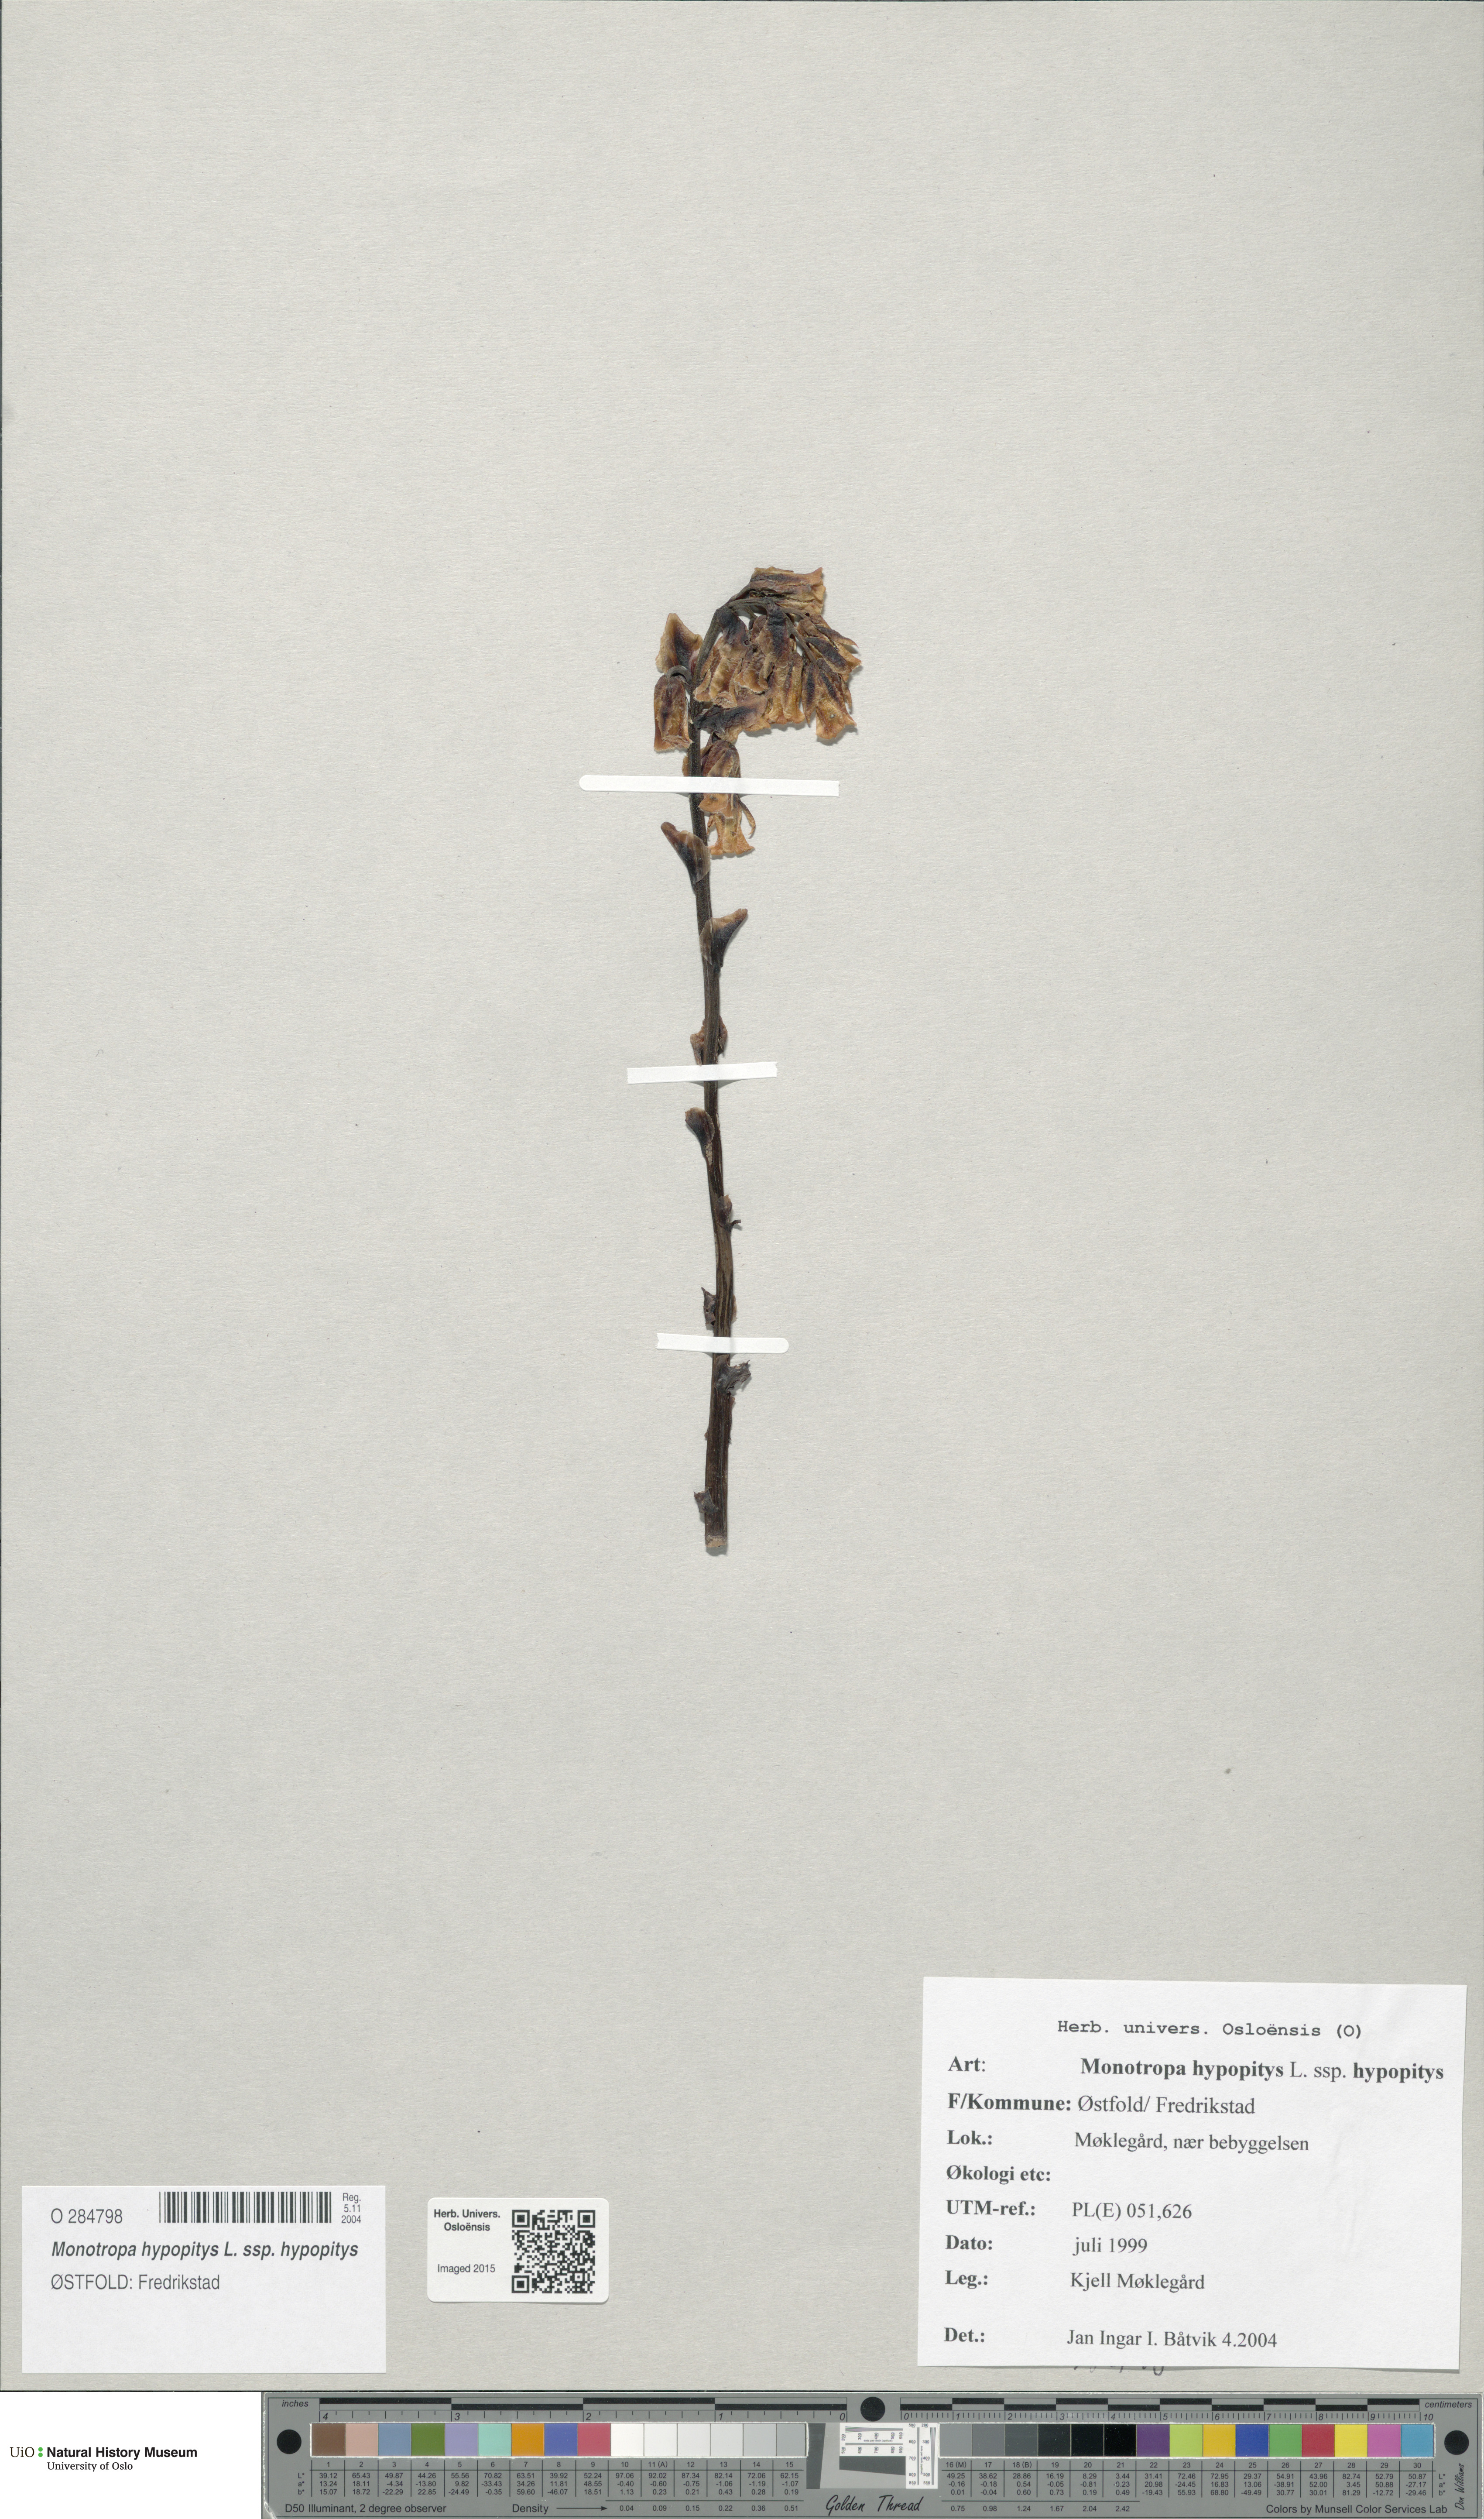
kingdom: Plantae
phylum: Tracheophyta
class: Magnoliopsida
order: Ericales
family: Ericaceae
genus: Hypopitys
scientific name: Hypopitys monotropa
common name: Yellow bird's-nest
